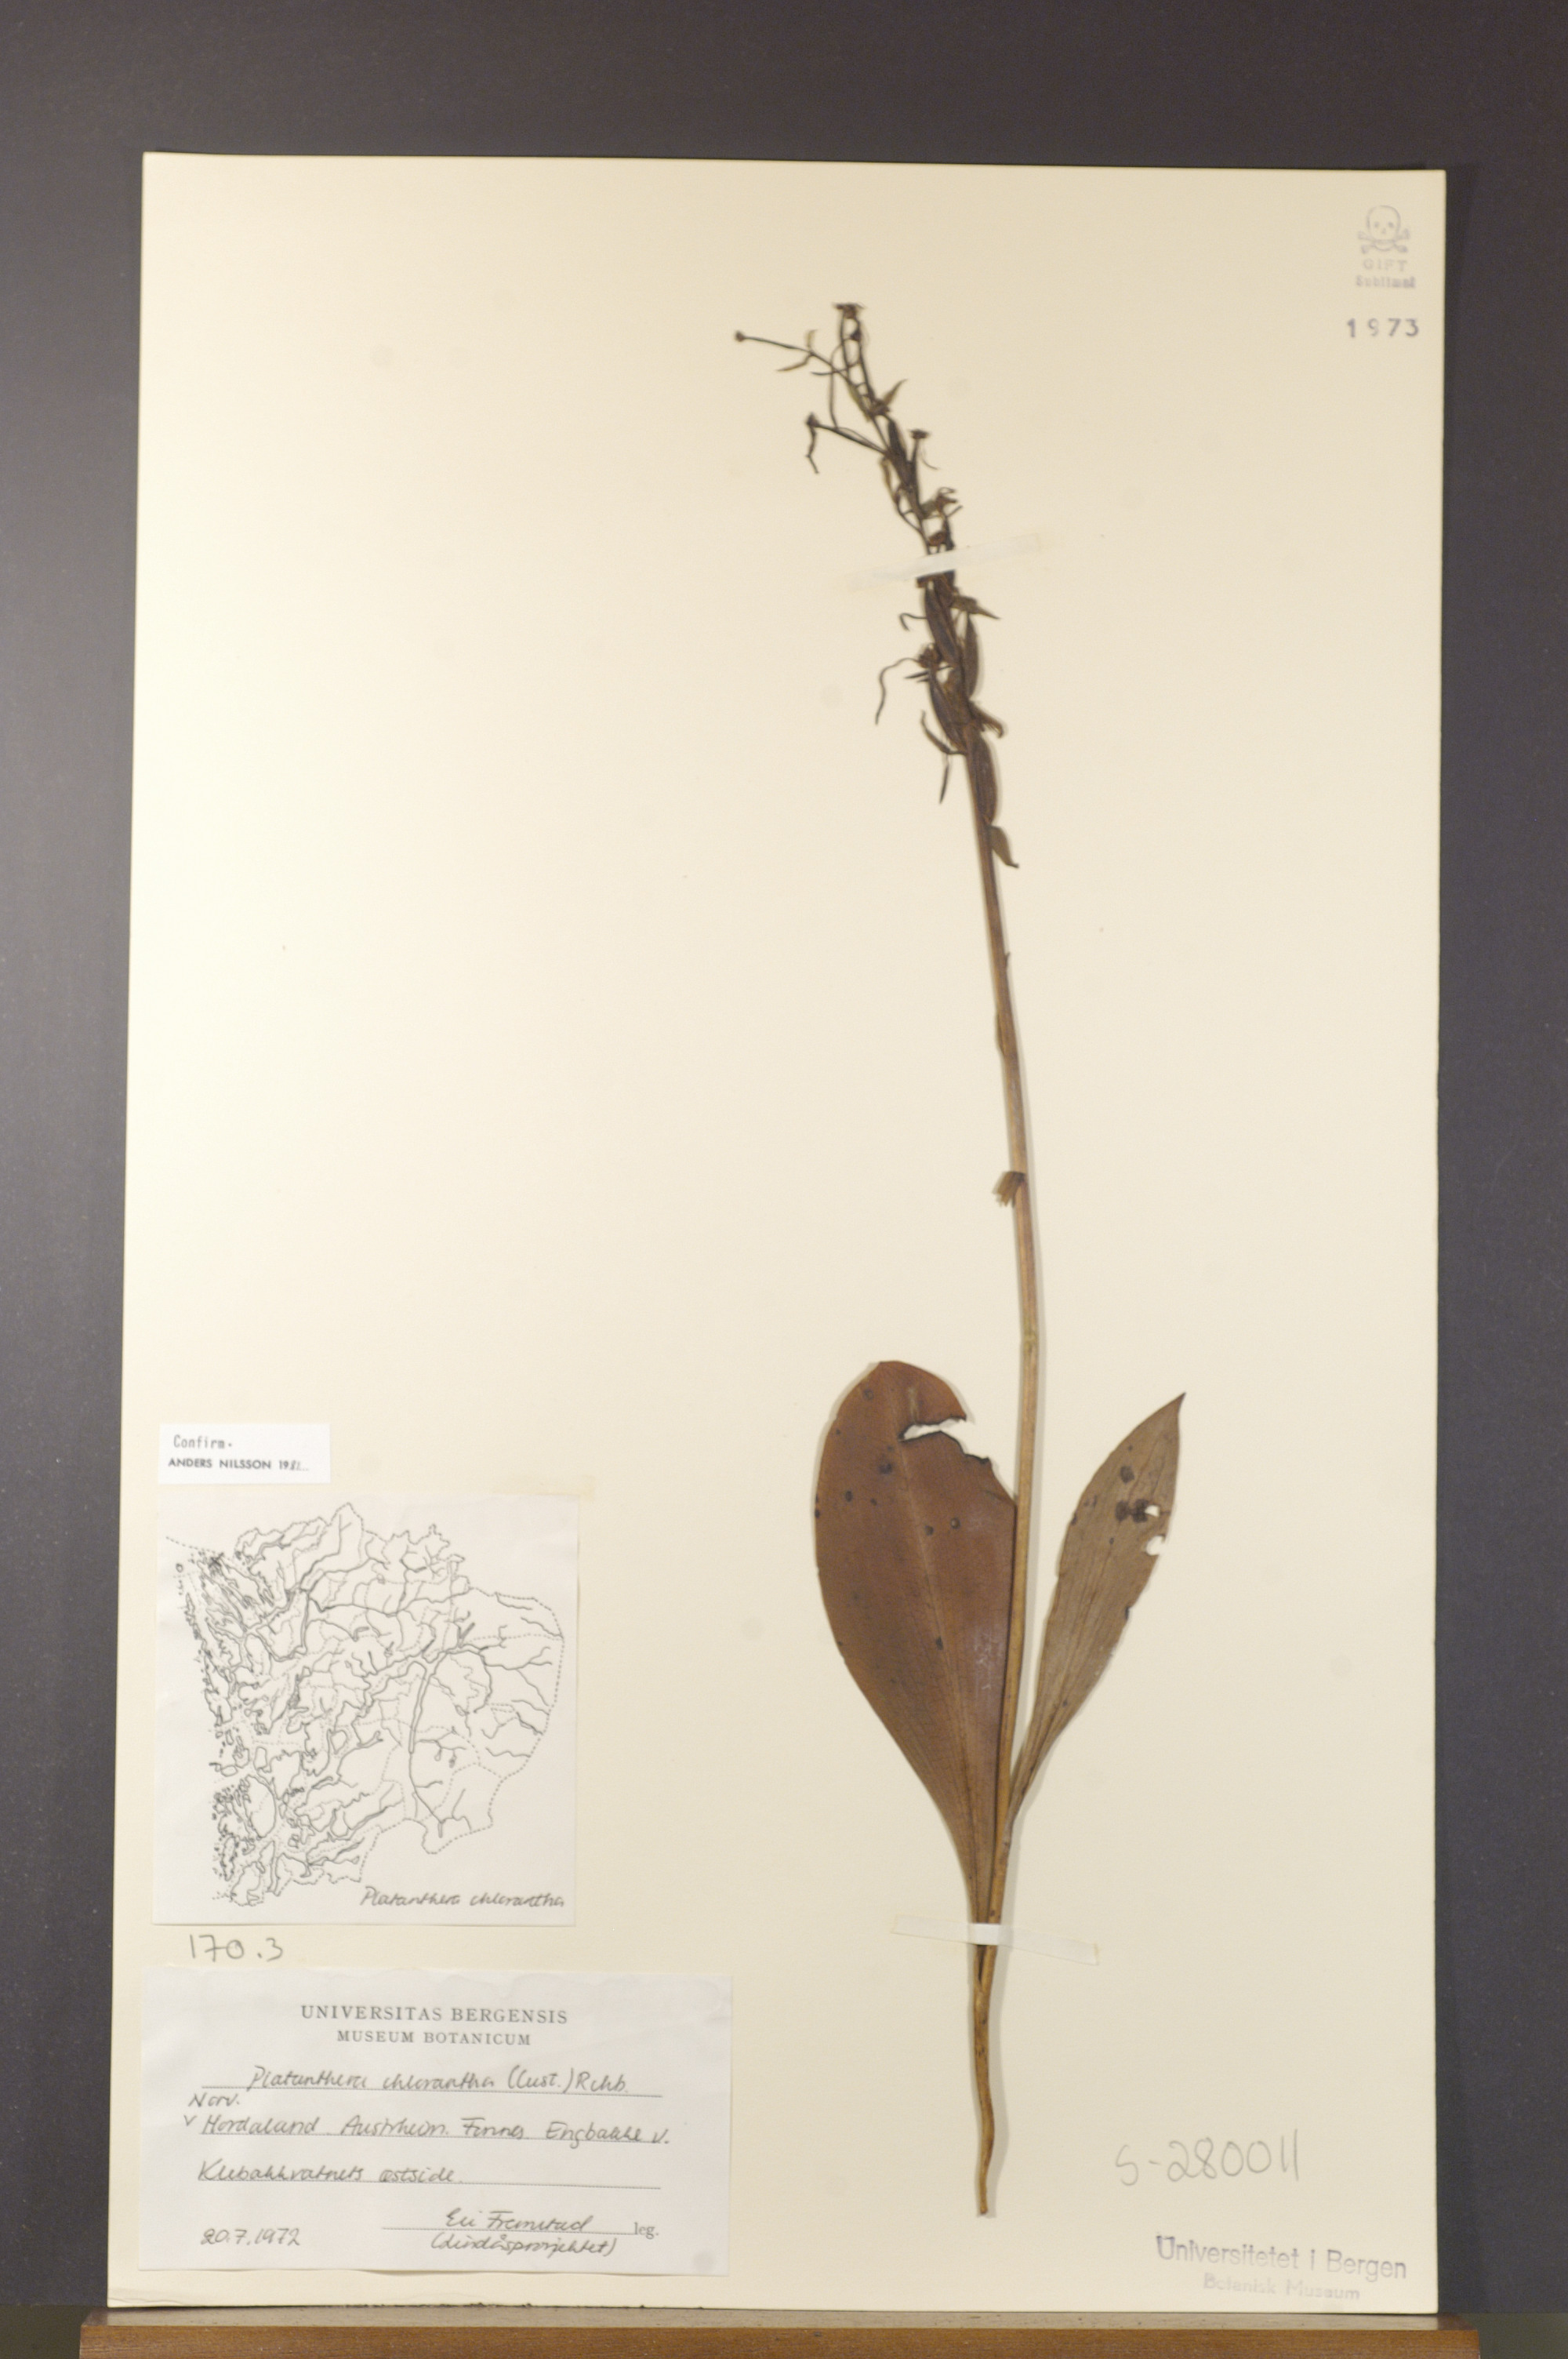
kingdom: Plantae
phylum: Tracheophyta
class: Liliopsida
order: Asparagales
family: Orchidaceae
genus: Platanthera
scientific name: Platanthera chlorantha
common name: Greater butterfly-orchid
